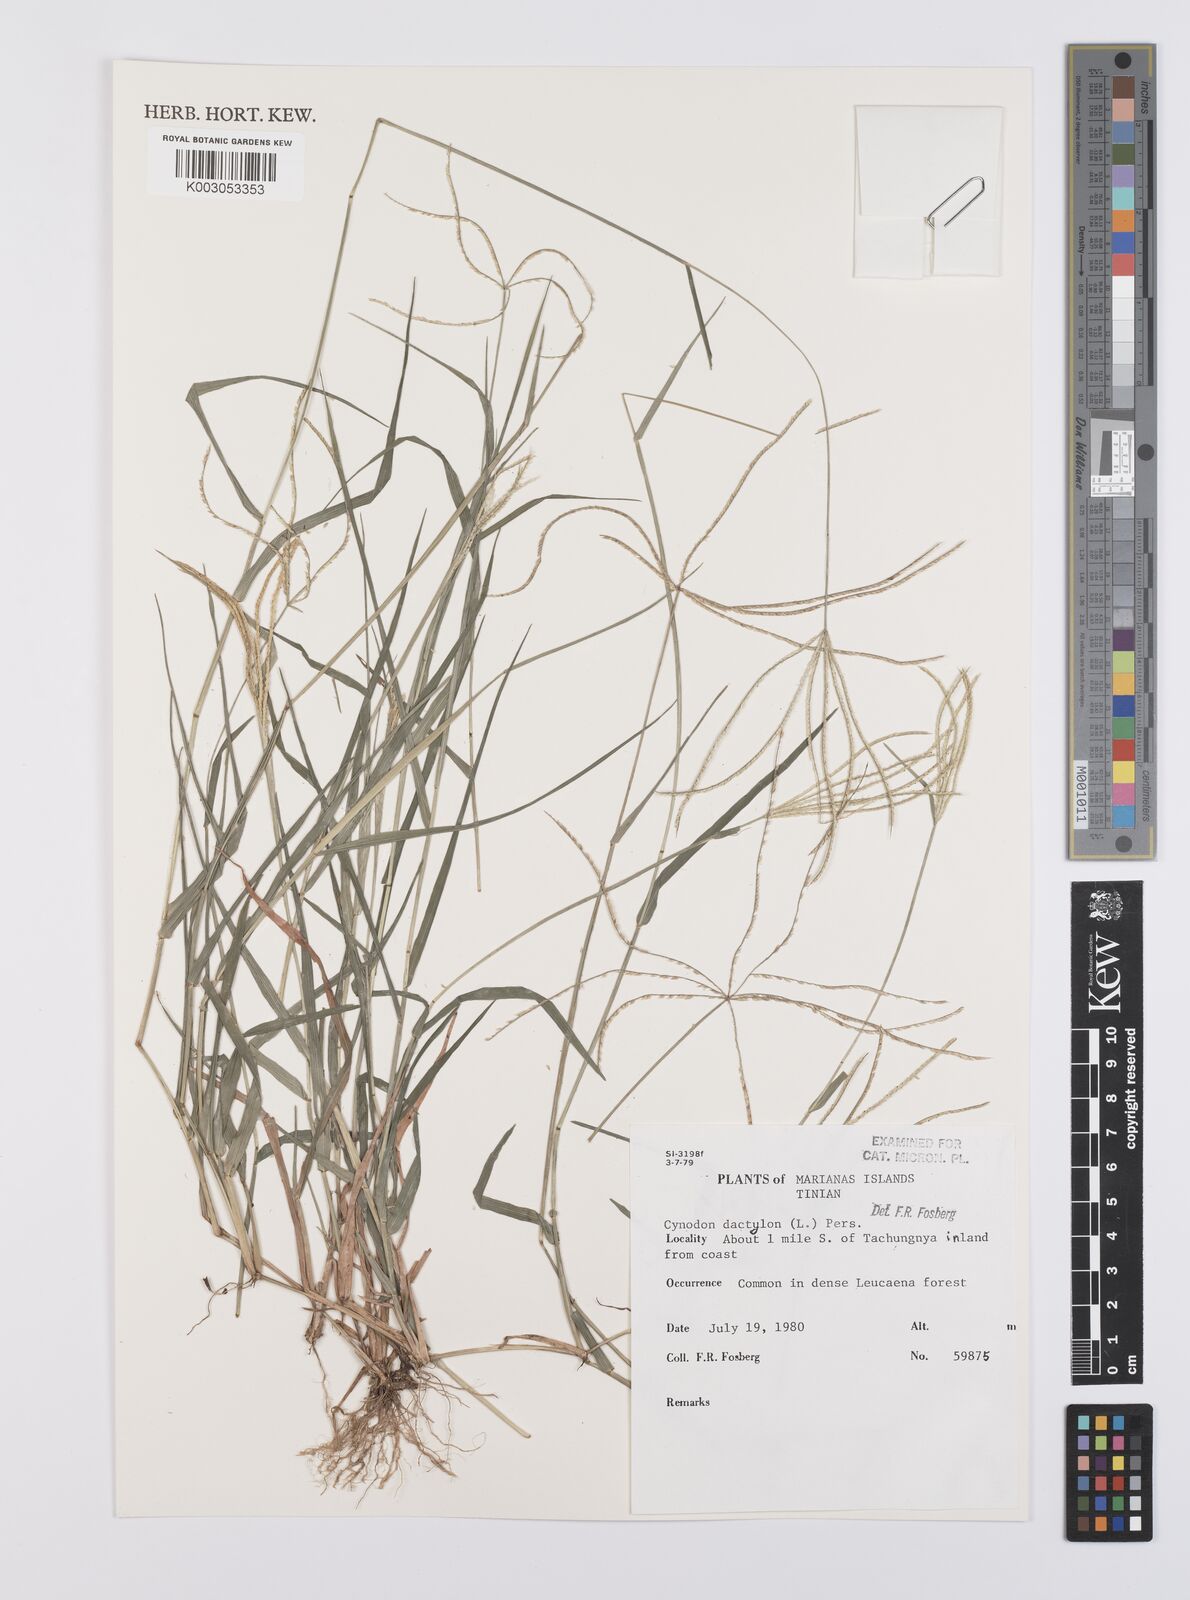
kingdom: Plantae
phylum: Tracheophyta
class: Liliopsida
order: Poales
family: Poaceae
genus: Cynodon
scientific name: Cynodon dactylon
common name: Bermuda grass
